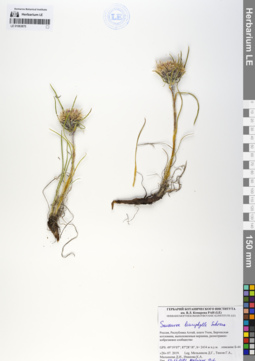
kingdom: Plantae
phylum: Tracheophyta
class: Magnoliopsida
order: Asterales
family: Asteraceae
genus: Saussurea
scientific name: Saussurea leucophylla
